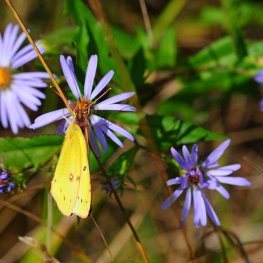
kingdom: Animalia
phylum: Arthropoda
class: Insecta
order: Lepidoptera
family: Pieridae
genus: Colias
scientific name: Colias eurytheme
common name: Orange Sulphur
